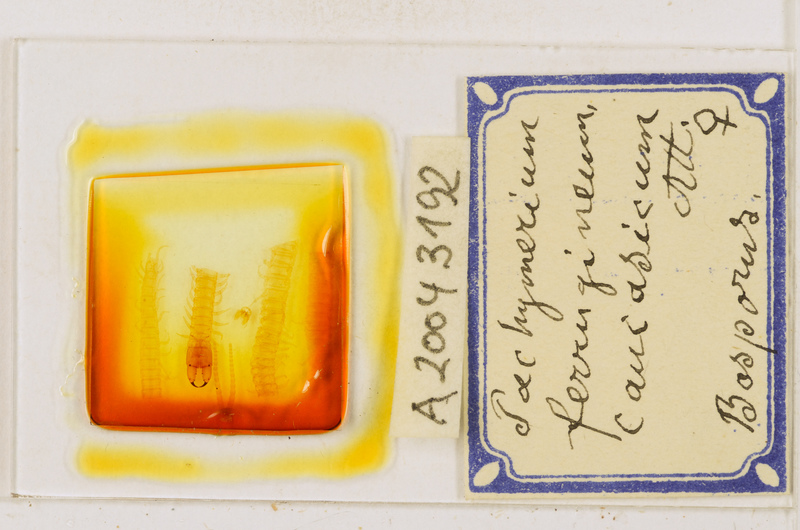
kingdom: Animalia
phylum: Arthropoda
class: Chilopoda
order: Geophilomorpha
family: Geophilidae
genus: Pachymerium
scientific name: Pachymerium ferrugineum
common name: Centipede
